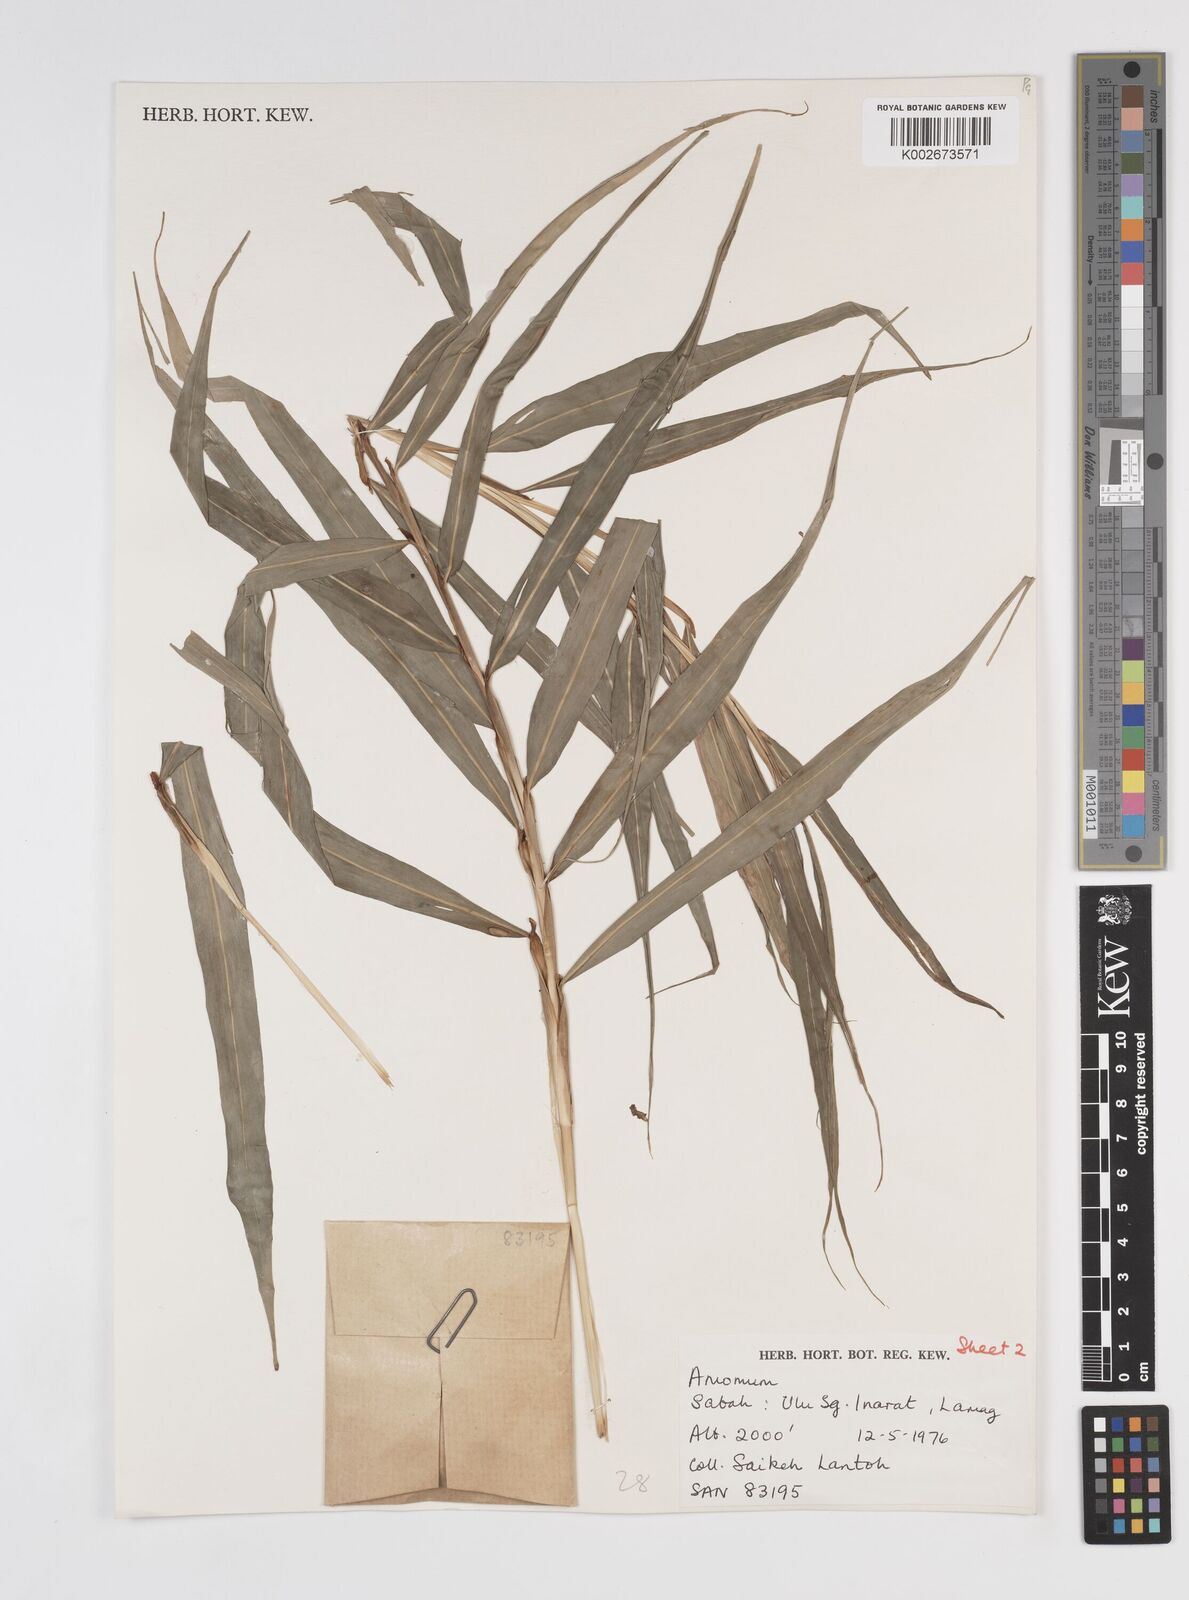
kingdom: Plantae
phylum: Tracheophyta
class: Liliopsida
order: Zingiberales
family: Zingiberaceae
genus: Amomum
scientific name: Amomum
